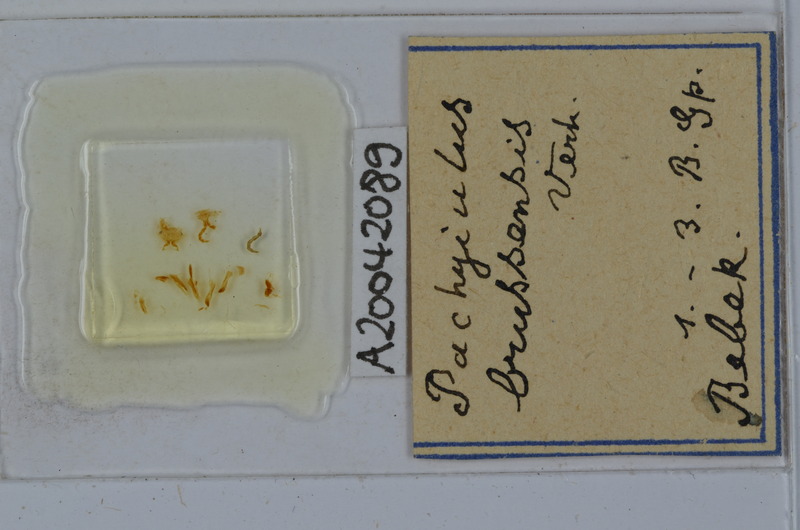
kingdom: Animalia
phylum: Arthropoda
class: Diplopoda
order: Julida
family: Julidae
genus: Pachyiulus
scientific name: Pachyiulus brussensis
